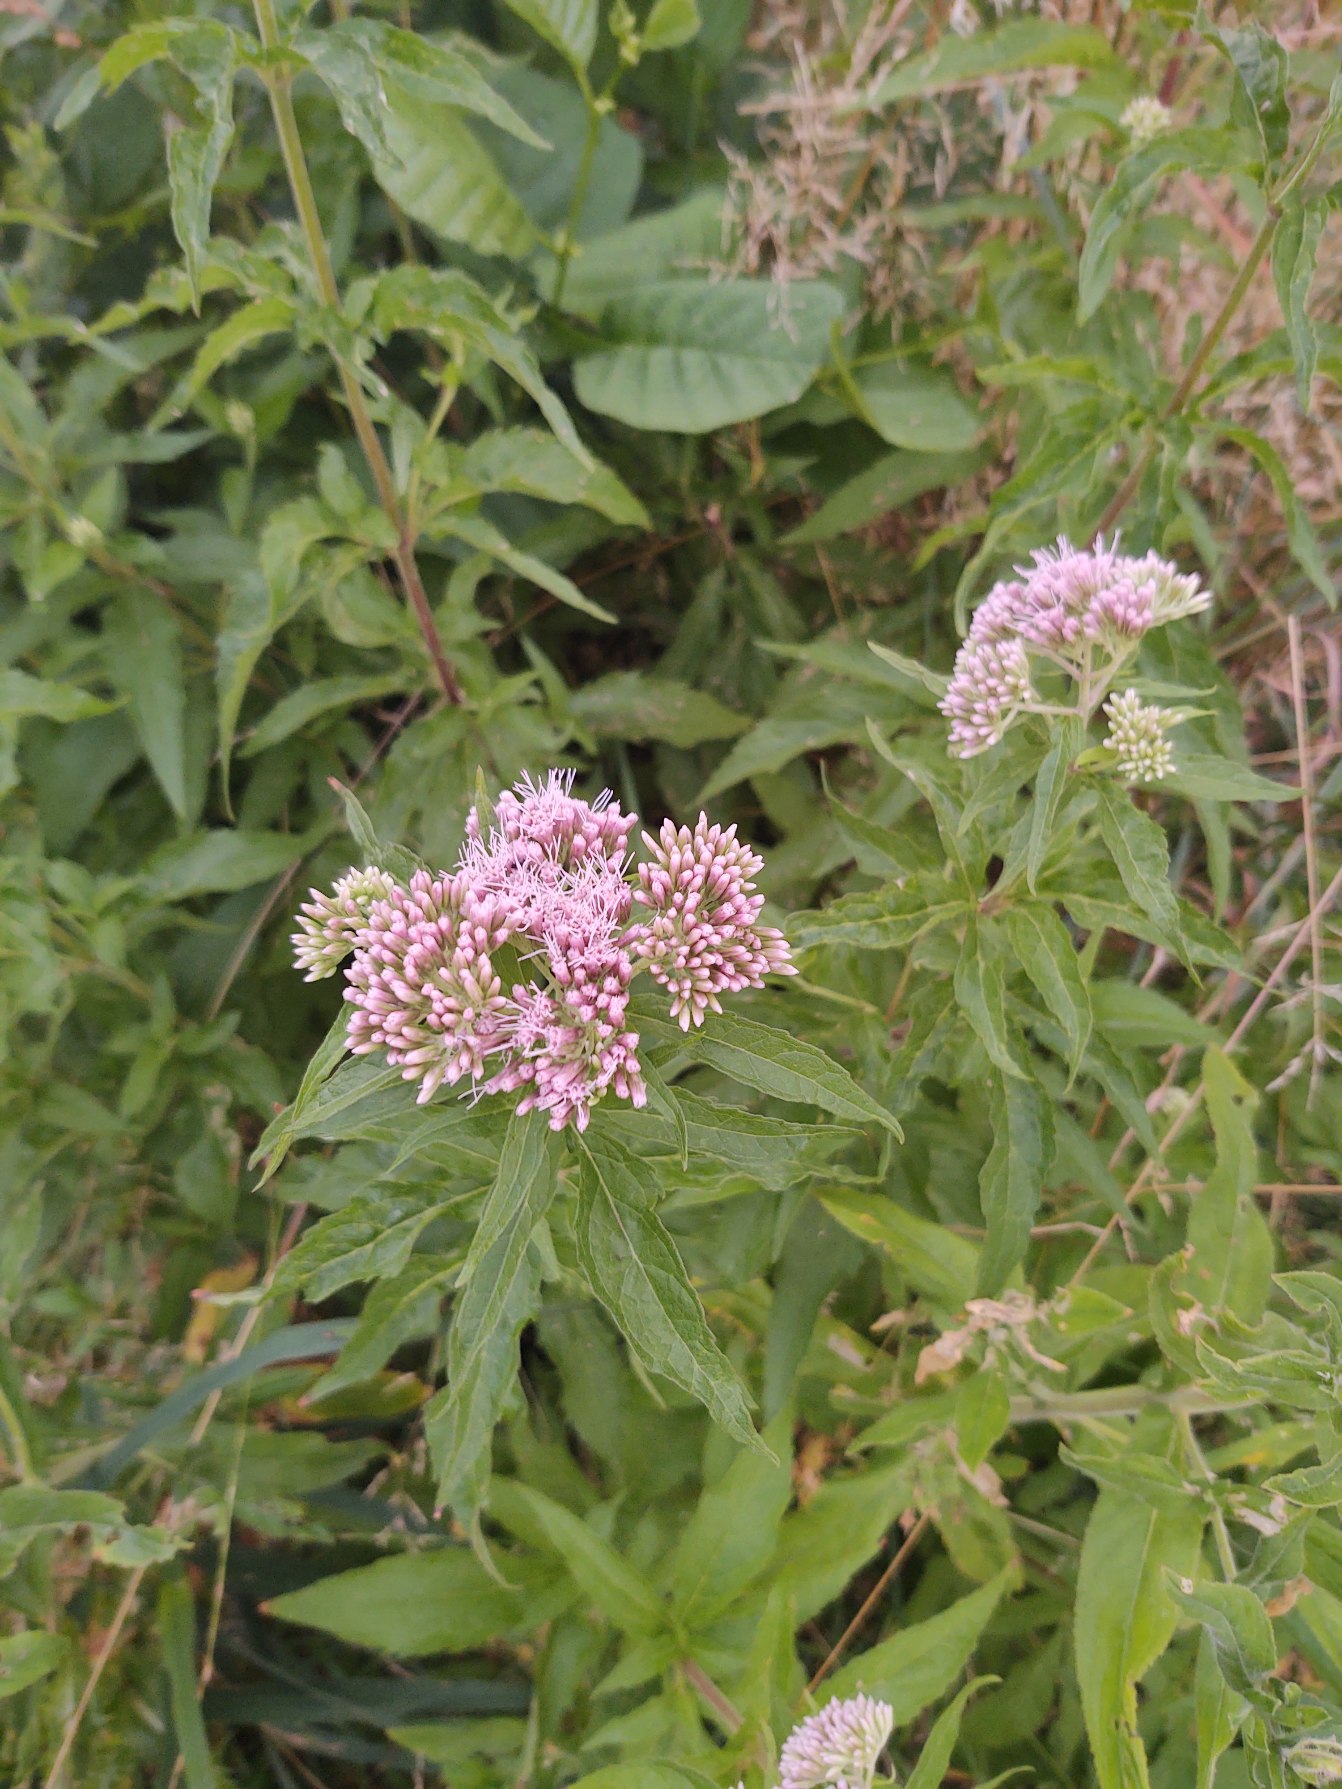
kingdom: Plantae
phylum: Tracheophyta
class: Magnoliopsida
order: Asterales
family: Asteraceae
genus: Eupatorium
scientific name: Eupatorium cannabinum
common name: Hjortetrøst
